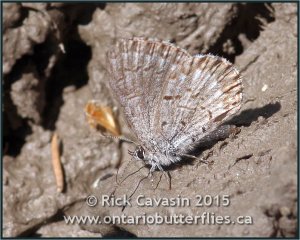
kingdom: Animalia
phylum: Arthropoda
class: Insecta
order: Lepidoptera
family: Lycaenidae
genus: Celastrina
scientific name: Celastrina lucia
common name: Northern Spring Azure
